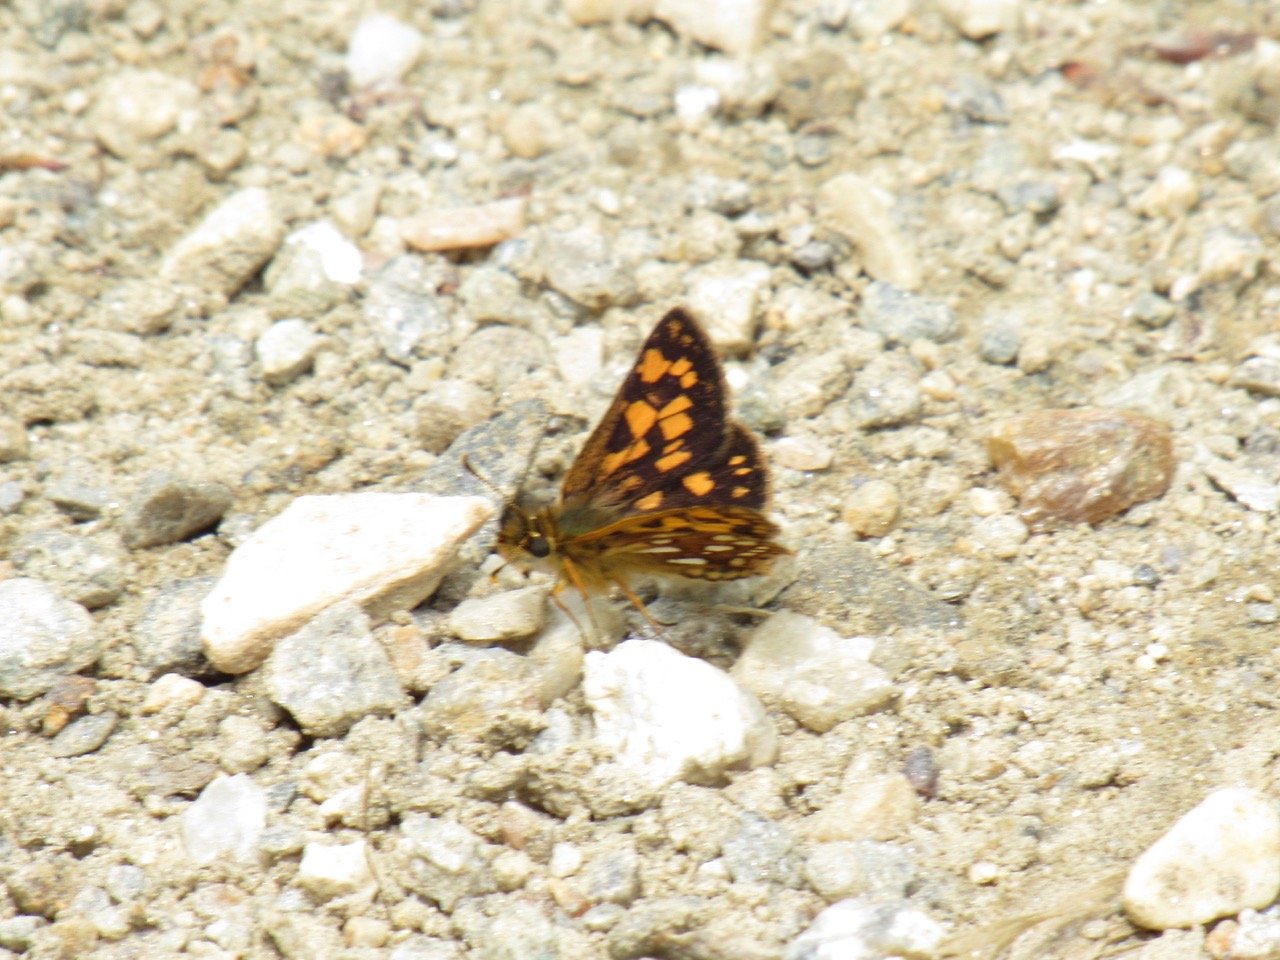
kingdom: Animalia
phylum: Arthropoda
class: Insecta
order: Lepidoptera
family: Hesperiidae
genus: Carterocephalus
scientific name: Carterocephalus palaemon
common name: Chequered Skipper
